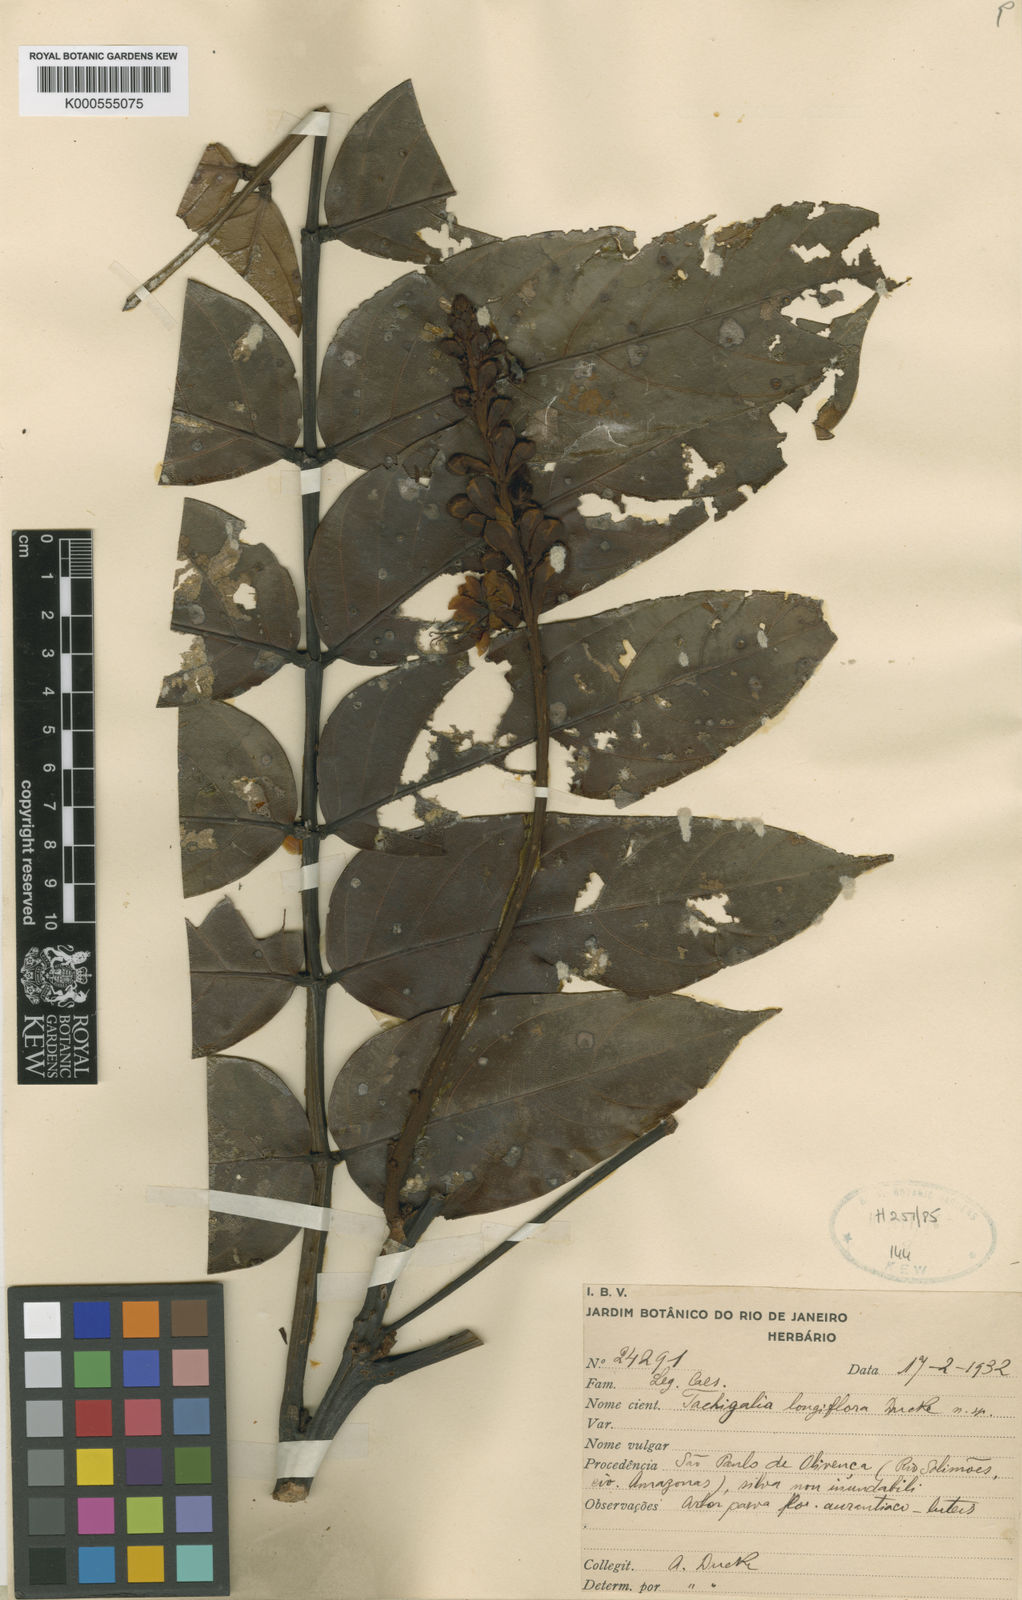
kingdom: Plantae
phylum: Tracheophyta
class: Magnoliopsida
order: Fabales
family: Fabaceae
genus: Tachigali
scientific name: Tachigali longiflora
